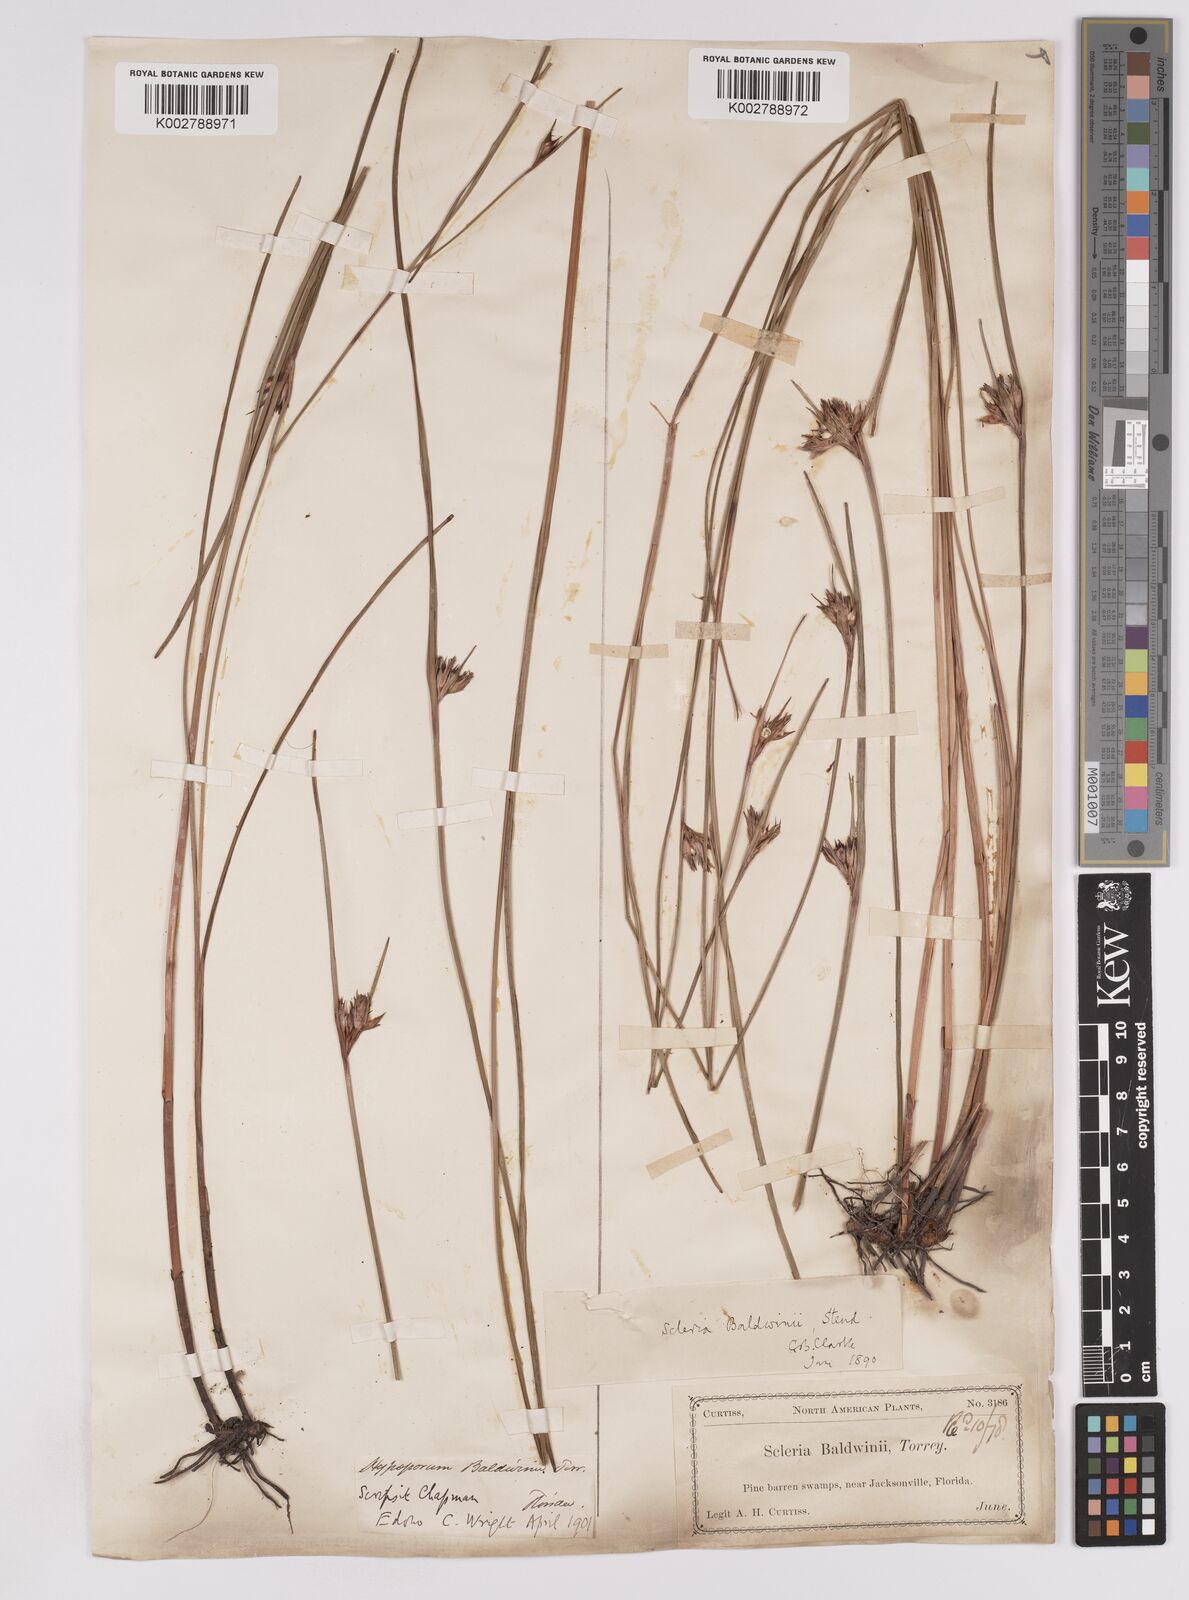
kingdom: Plantae
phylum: Tracheophyta
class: Liliopsida
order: Poales
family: Cyperaceae
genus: Scleria
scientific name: Scleria baldwinii
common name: Baldwin's nutrush
